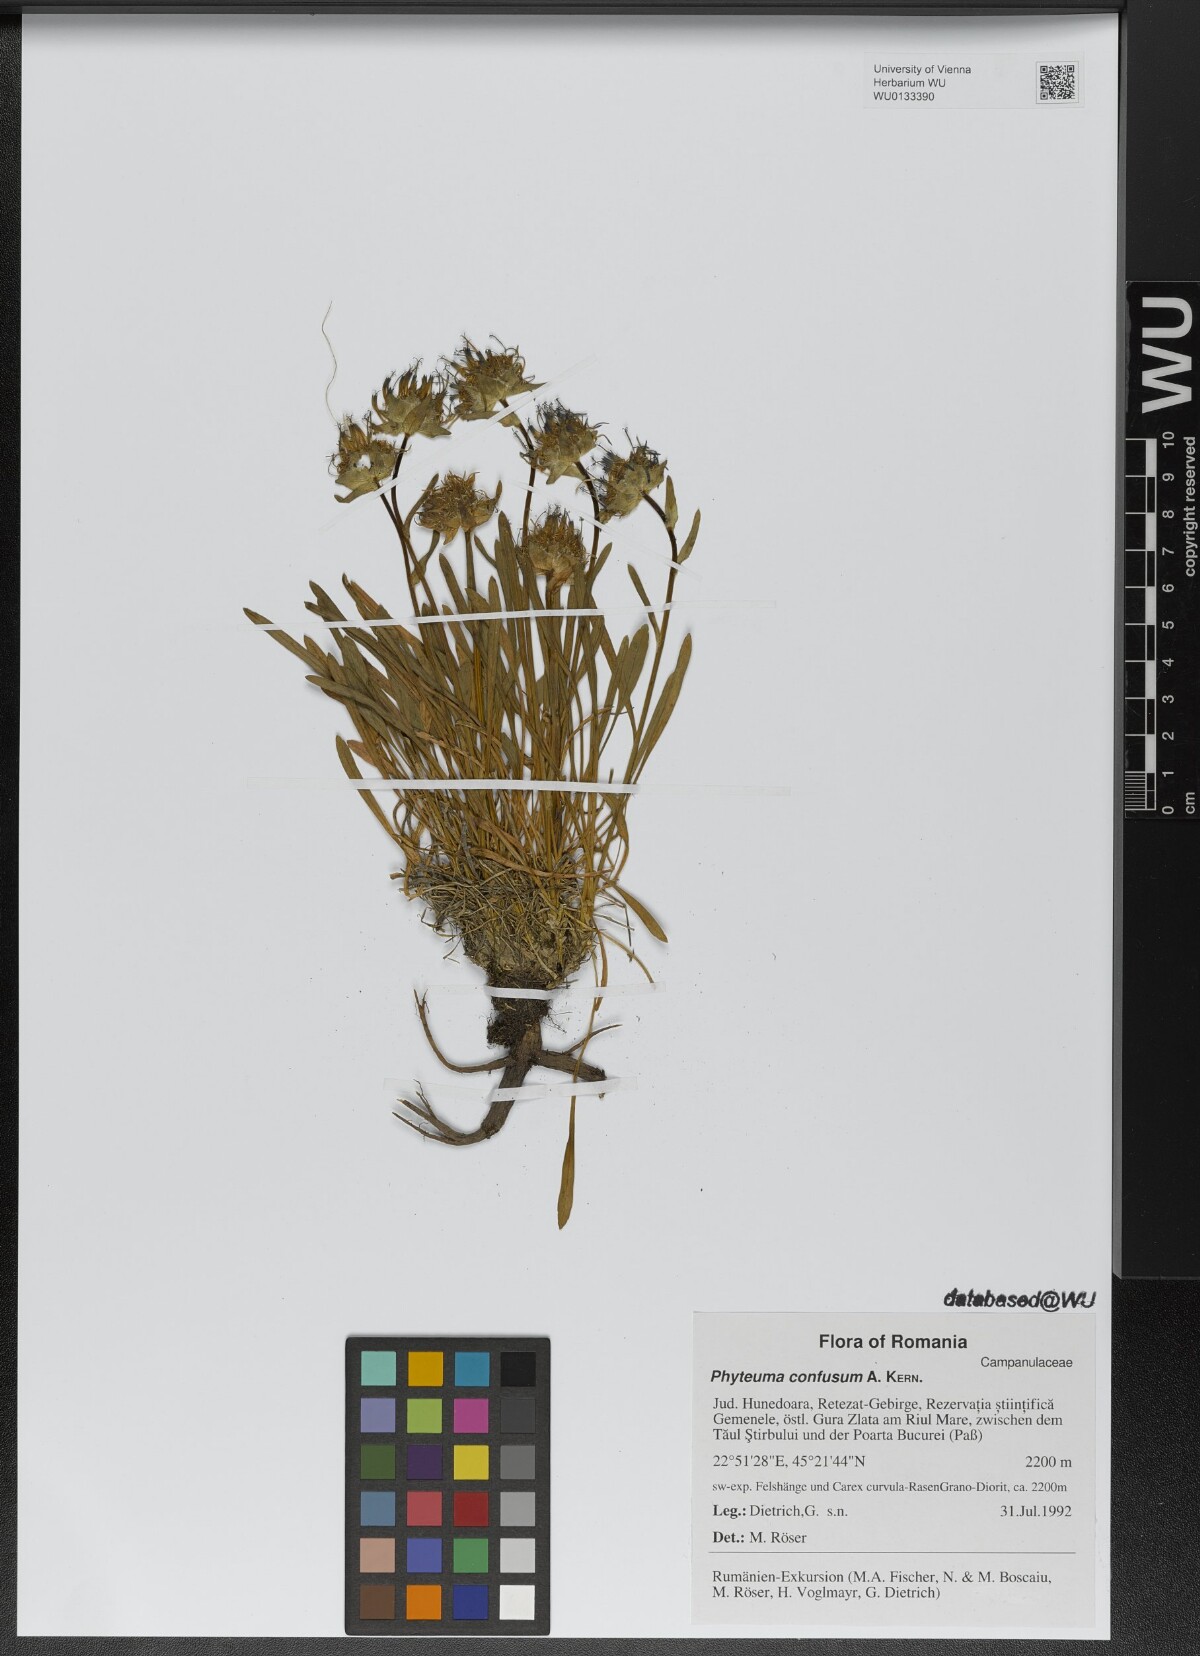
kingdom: Plantae
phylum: Tracheophyta
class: Magnoliopsida
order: Asterales
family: Campanulaceae
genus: Phyteuma
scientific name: Phyteuma confusum
